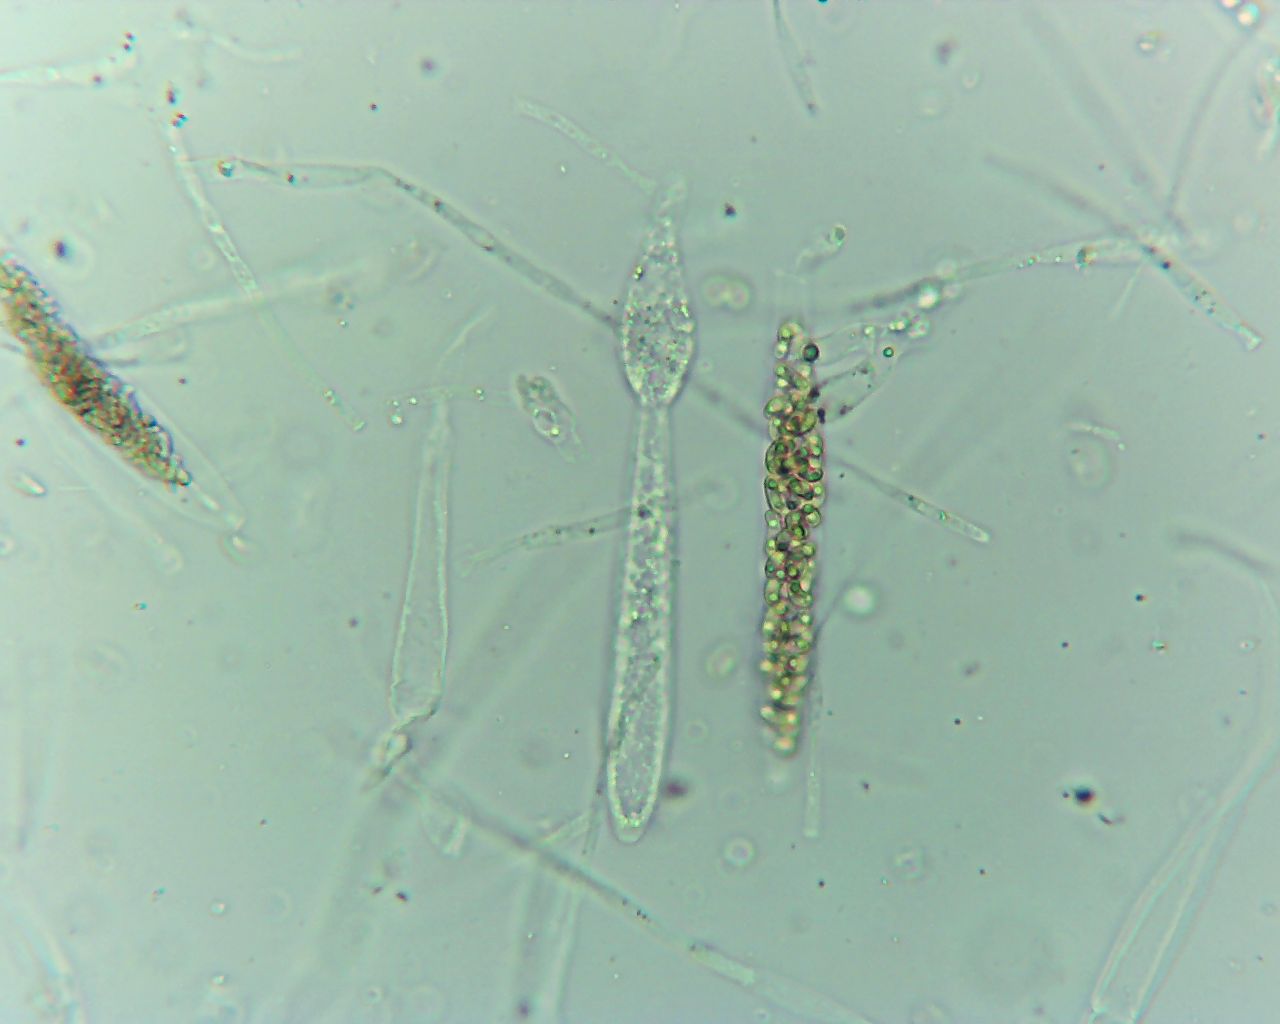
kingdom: Fungi
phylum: Ascomycota
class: Sordariomycetes
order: Xylariales
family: Diatrypaceae
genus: Diatrypella
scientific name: Diatrypella quercina
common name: ege-kulskorpe
